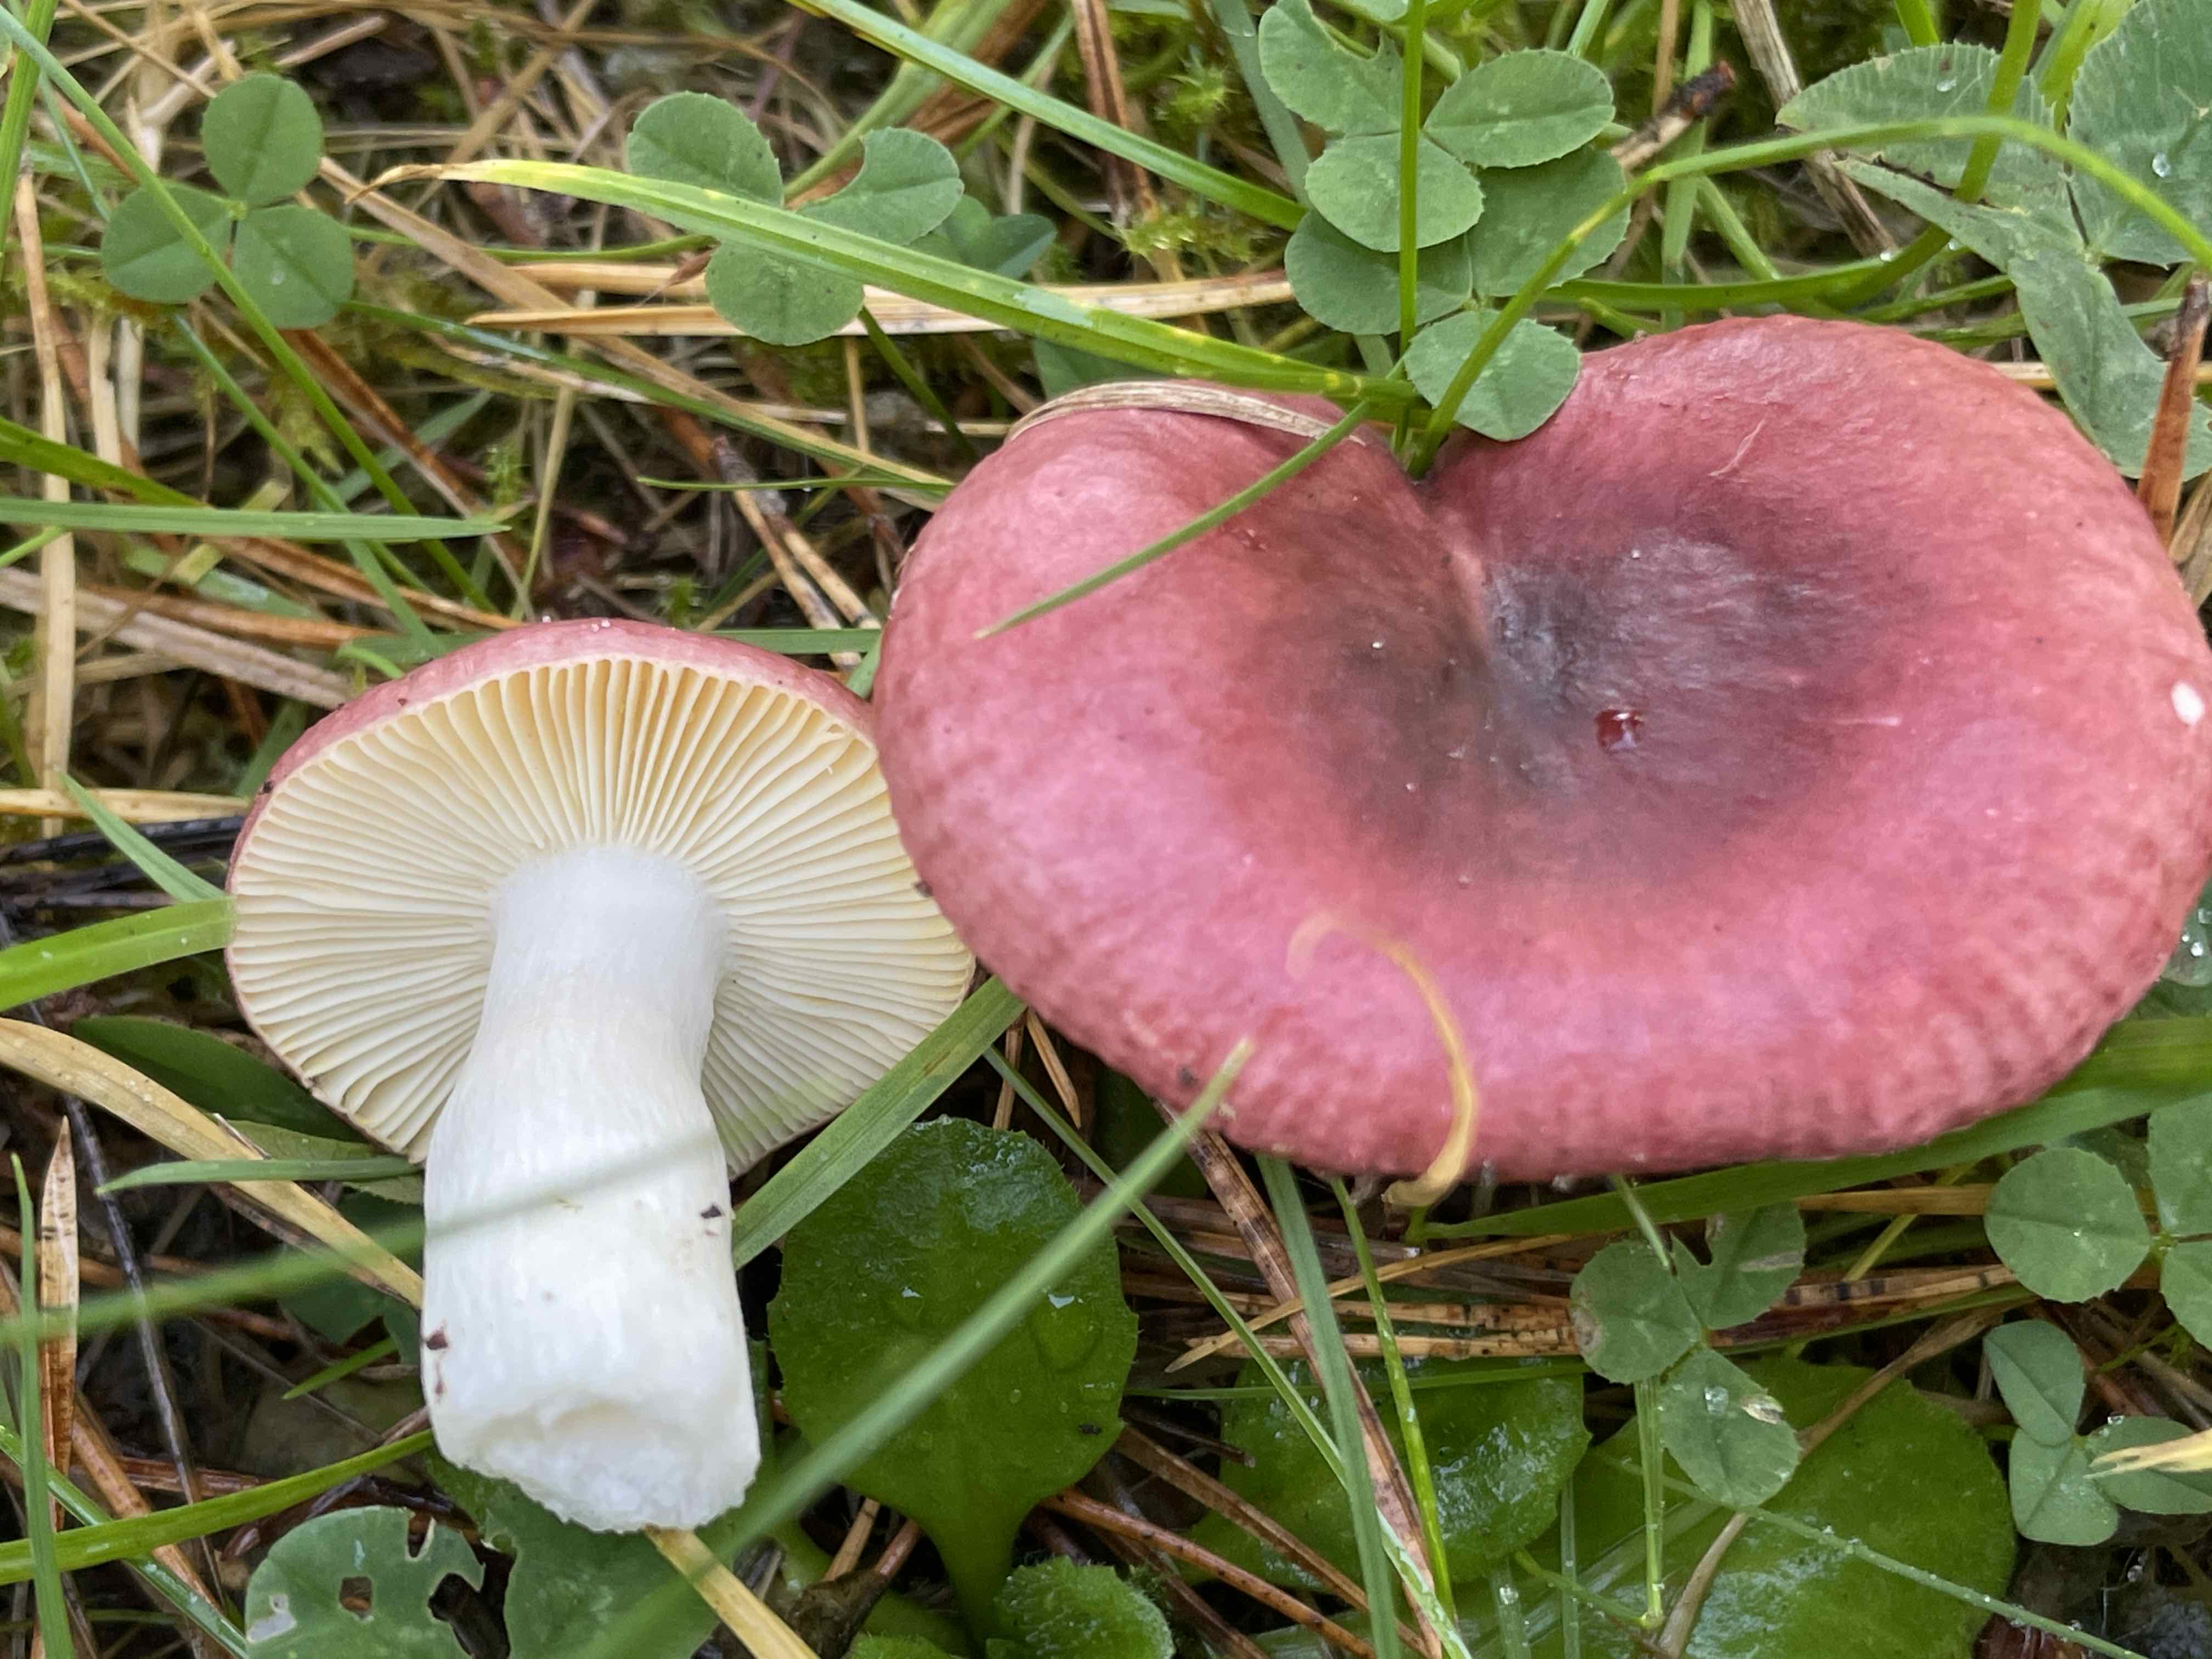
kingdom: Fungi
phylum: Basidiomycota
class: Agaricomycetes
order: Russulales
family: Russulaceae
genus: Russula
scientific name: Russula cessans
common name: fyrre-skørhat
